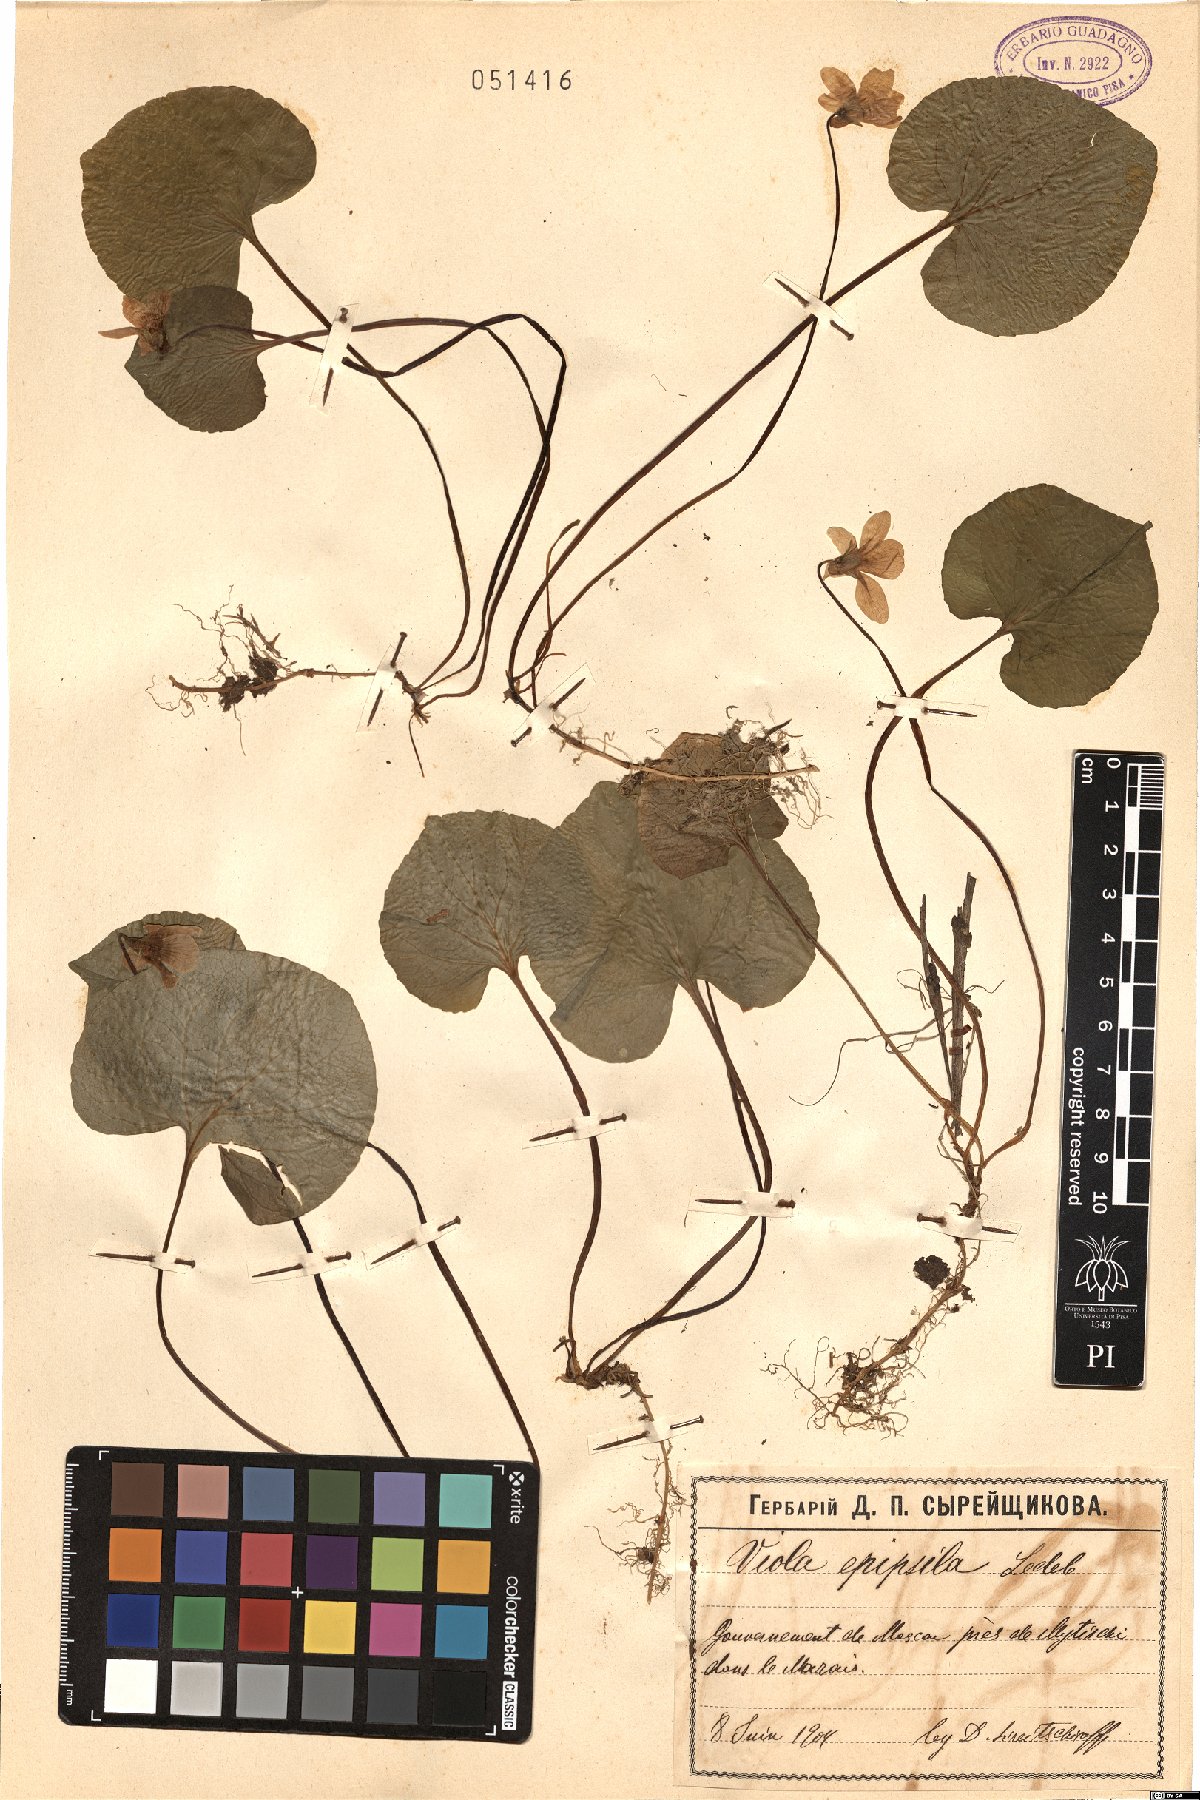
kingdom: Plantae
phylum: Tracheophyta
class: Magnoliopsida
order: Malpighiales
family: Violaceae
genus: Viola
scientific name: Viola epipsila
